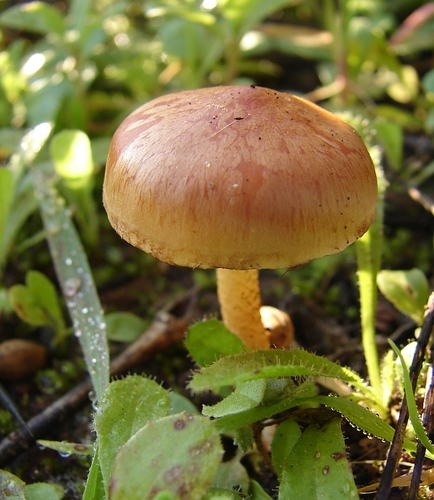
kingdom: Fungi
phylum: Basidiomycota
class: Agaricomycetes
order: Agaricales
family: Strophariaceae
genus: Pholiota
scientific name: Pholiota carbonaria
